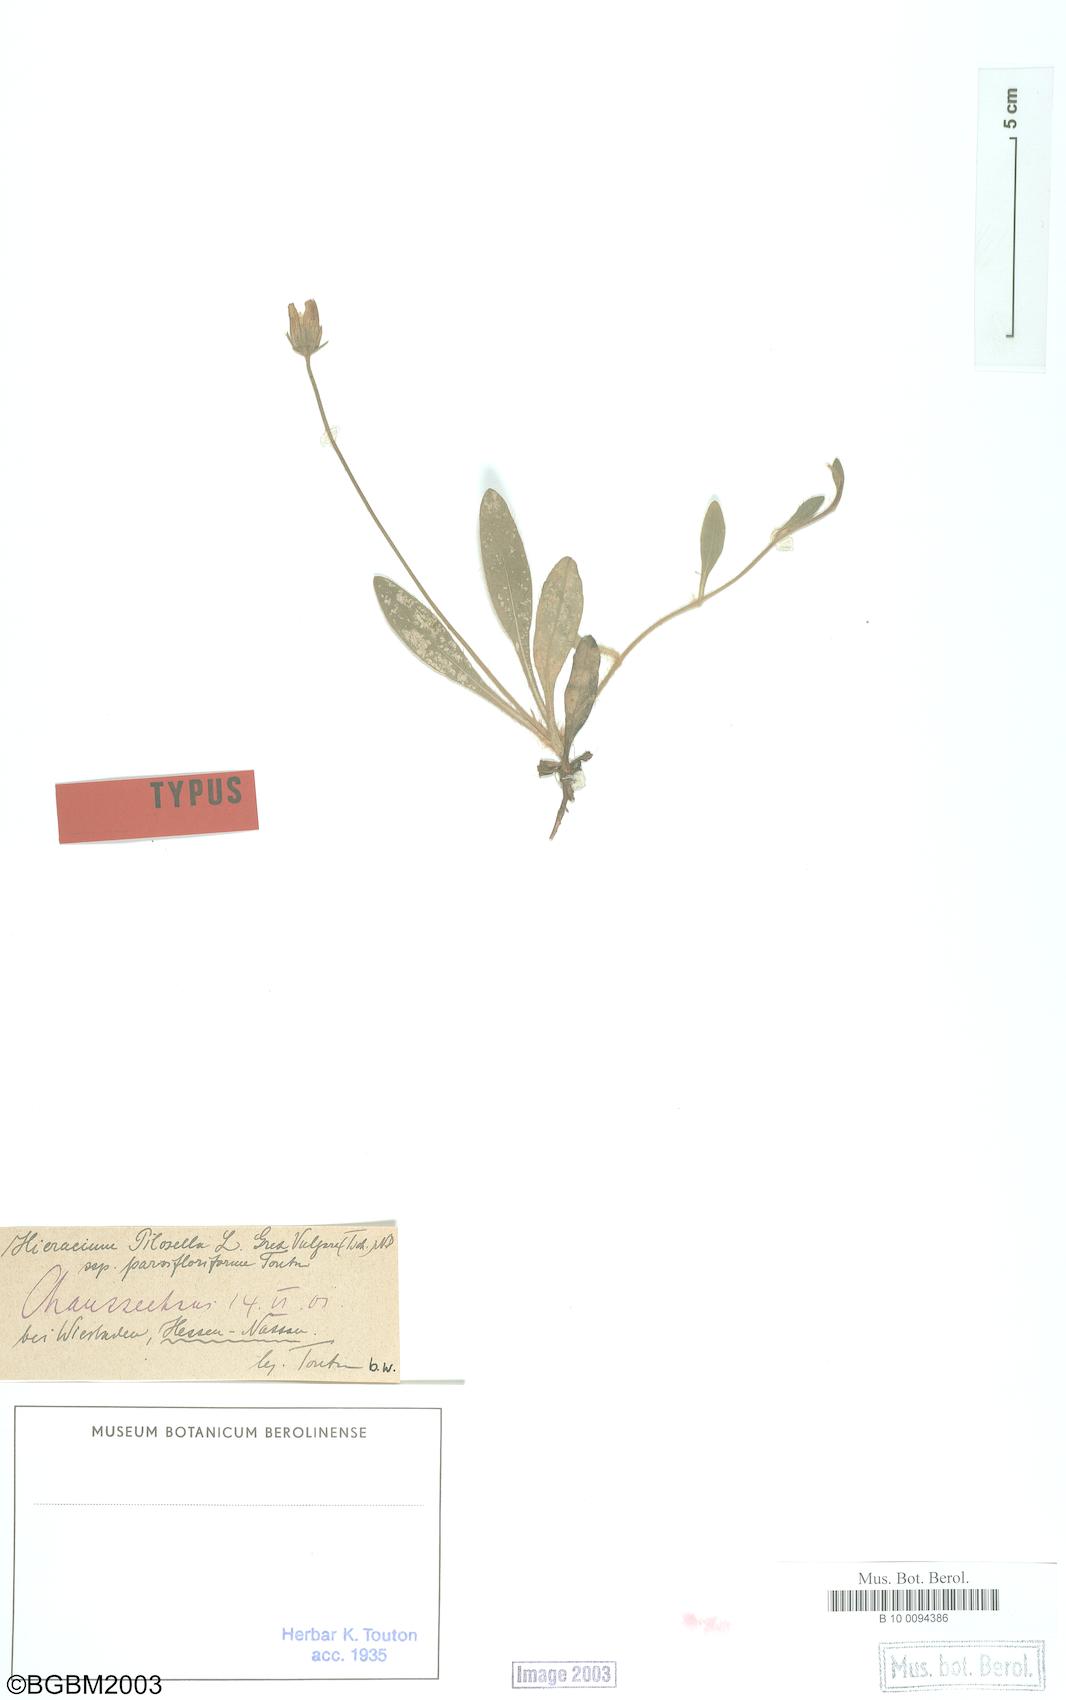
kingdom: Plantae
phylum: Tracheophyta
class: Magnoliopsida
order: Asterales
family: Asteraceae
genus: Pilosella
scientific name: Pilosella officinarum
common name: Mouse-ear hawkweed
